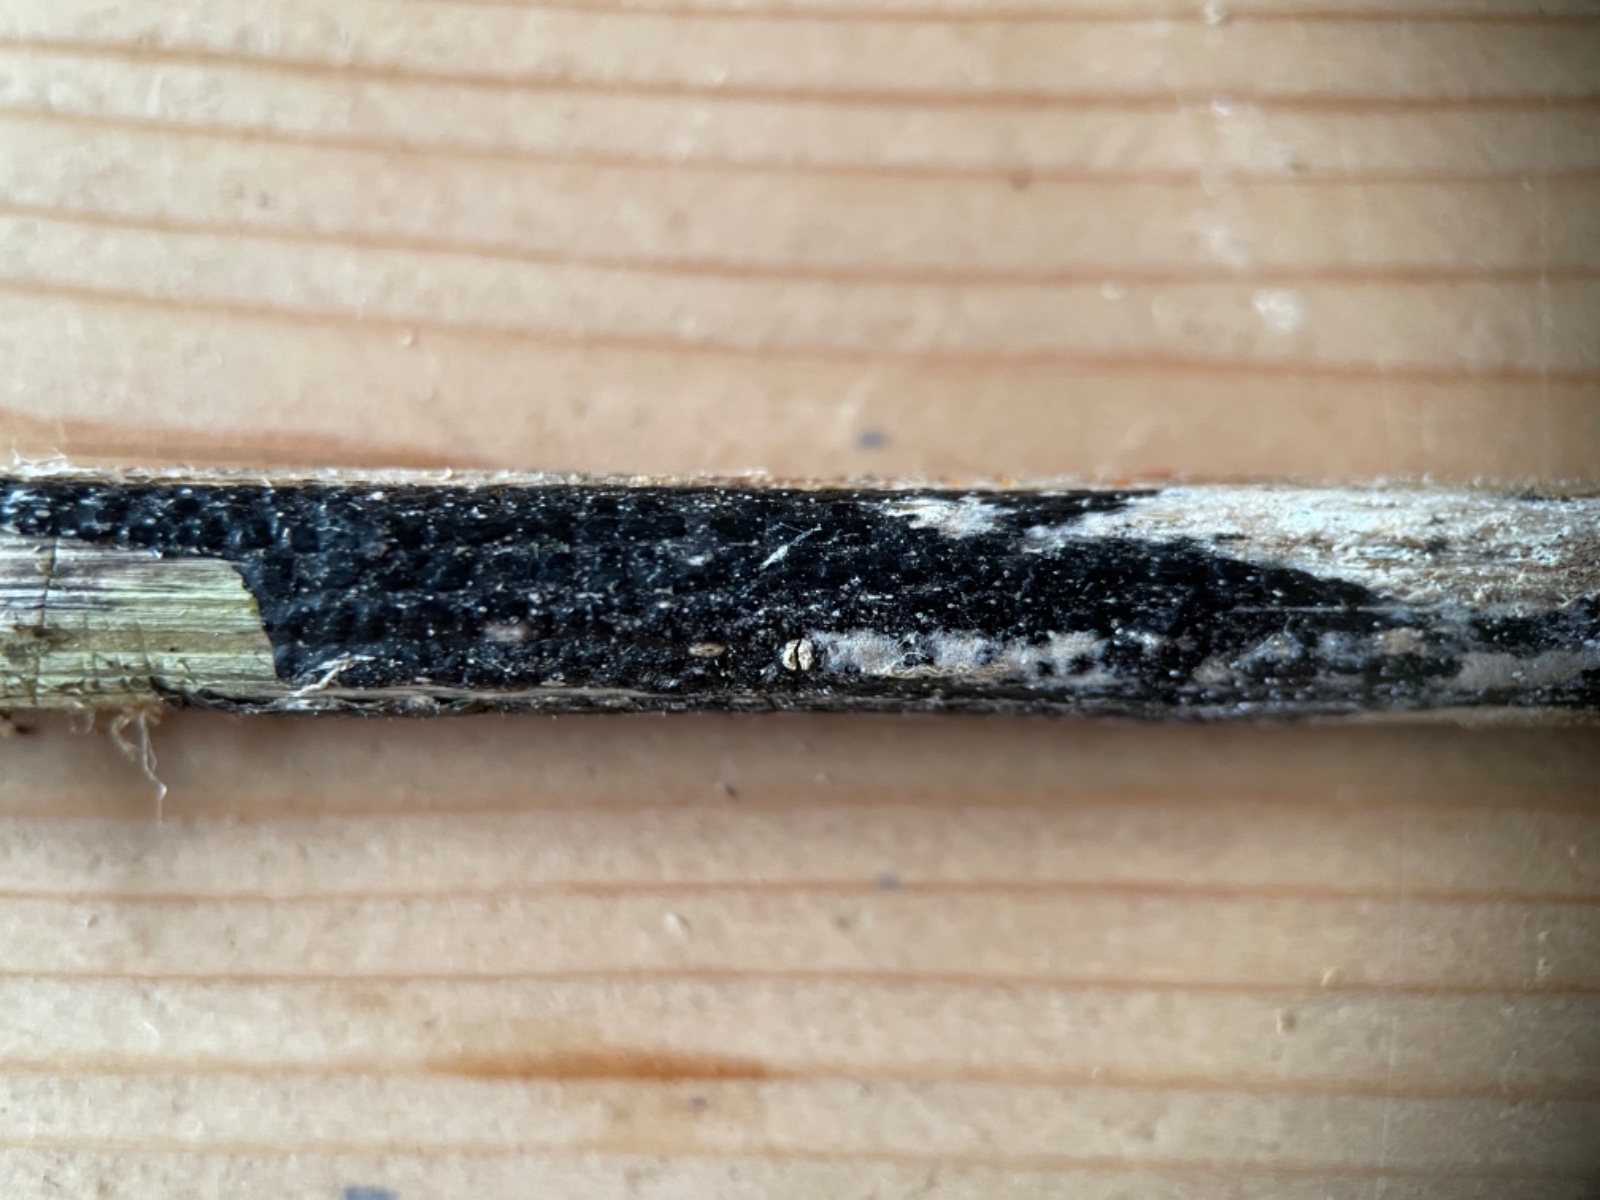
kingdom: Fungi
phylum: Ascomycota
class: Sordariomycetes
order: Diaporthales
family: Diaporthaceae
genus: Diaporthopsis
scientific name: Diaporthopsis urticae
